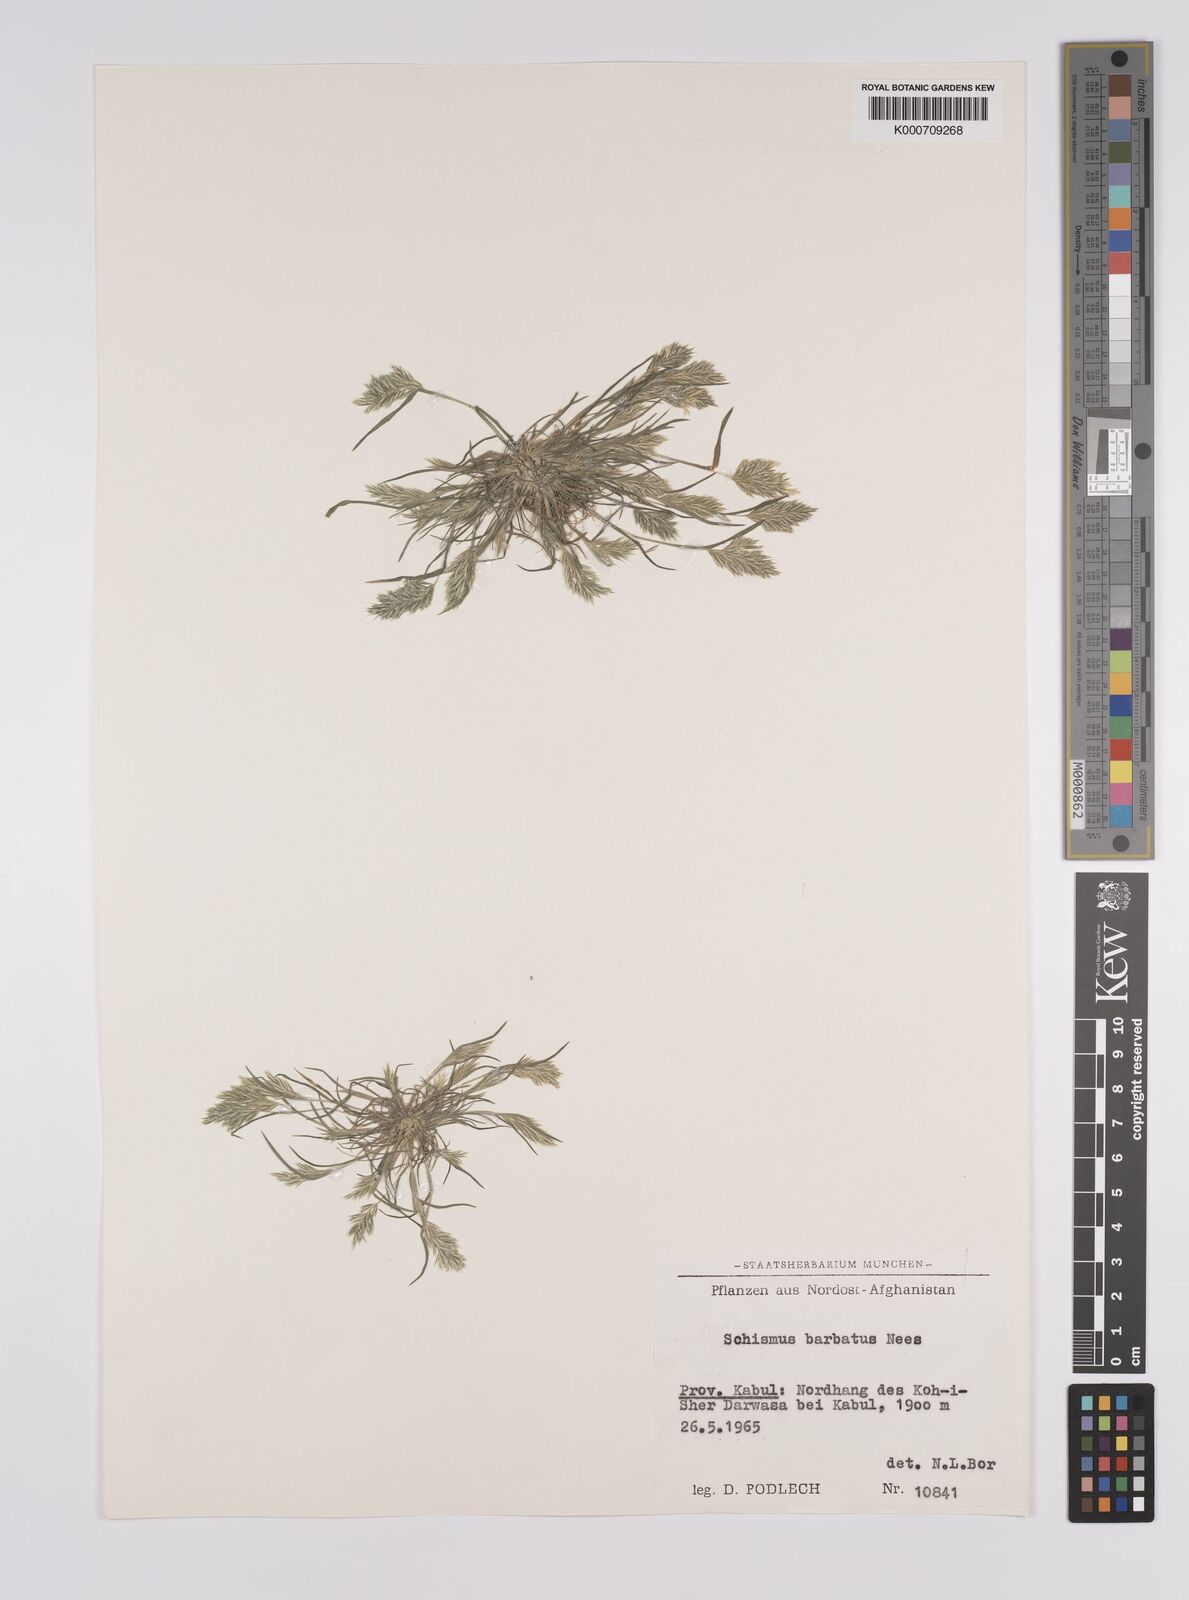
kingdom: Plantae
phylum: Tracheophyta
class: Liliopsida
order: Poales
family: Poaceae
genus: Schismus
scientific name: Schismus barbatus
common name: Kelch-grass
